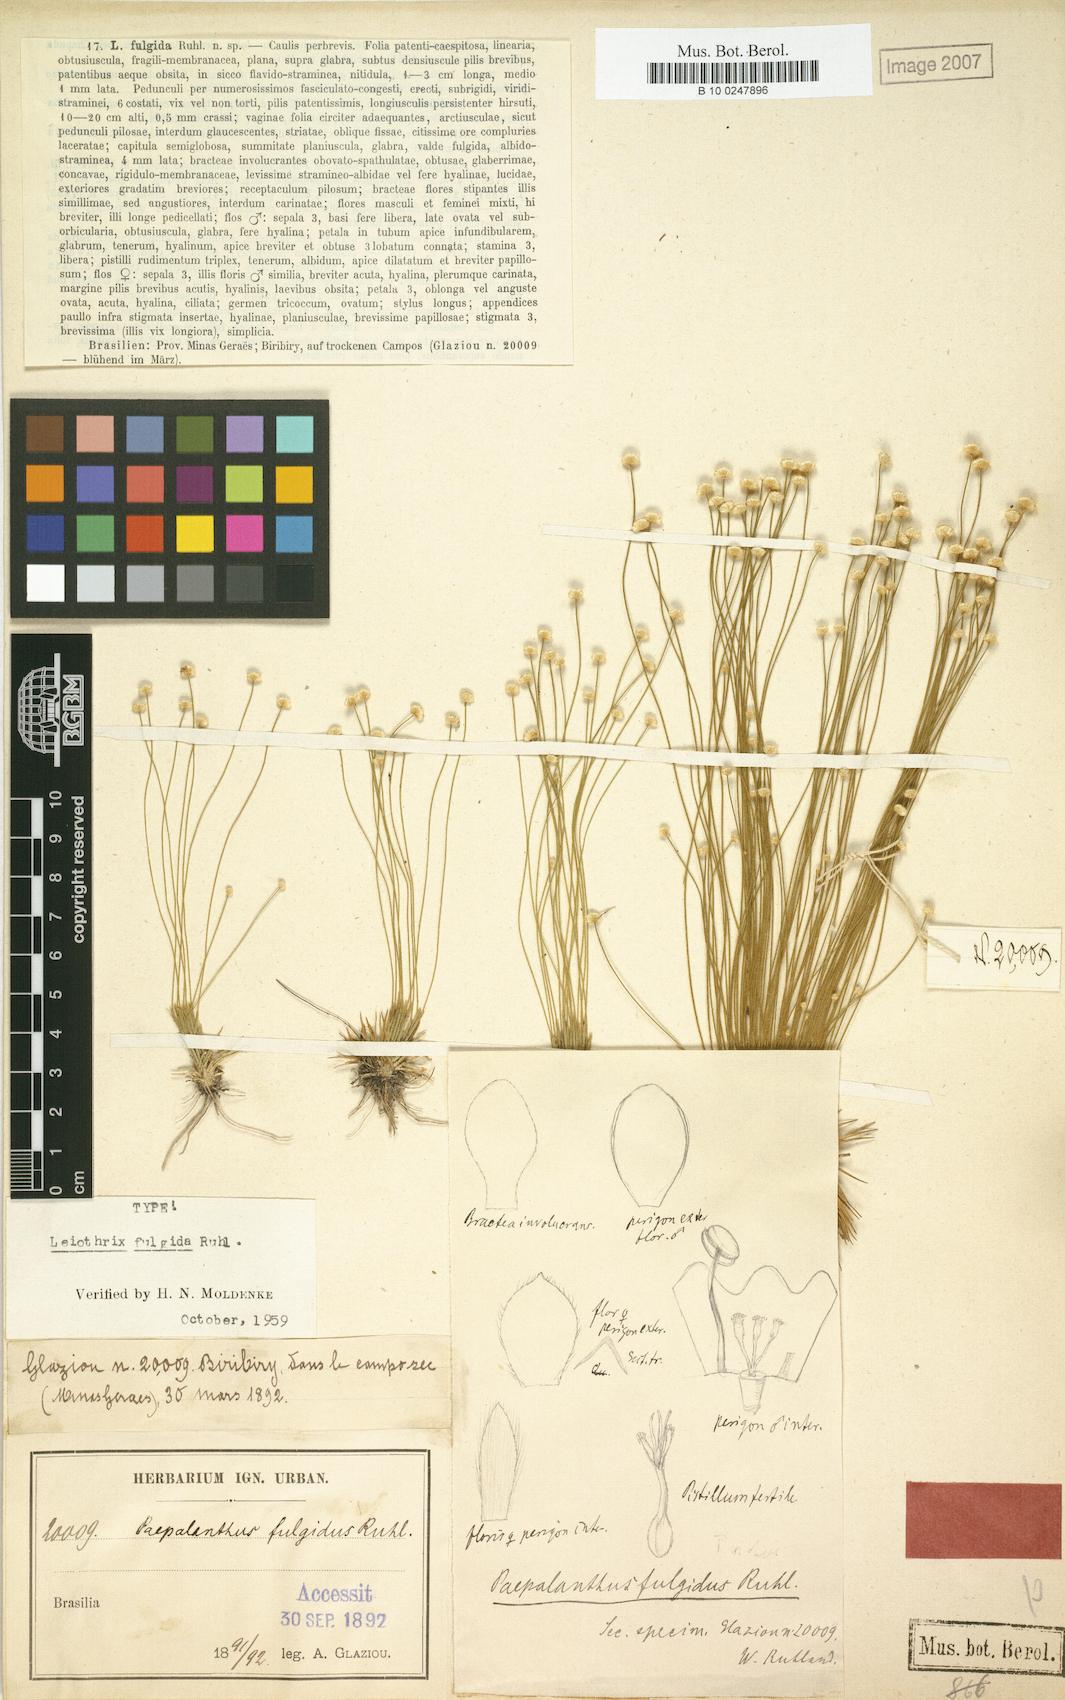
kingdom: Plantae
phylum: Tracheophyta
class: Liliopsida
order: Poales
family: Eriocaulaceae
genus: Leiothrix
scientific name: Leiothrix fulgida
